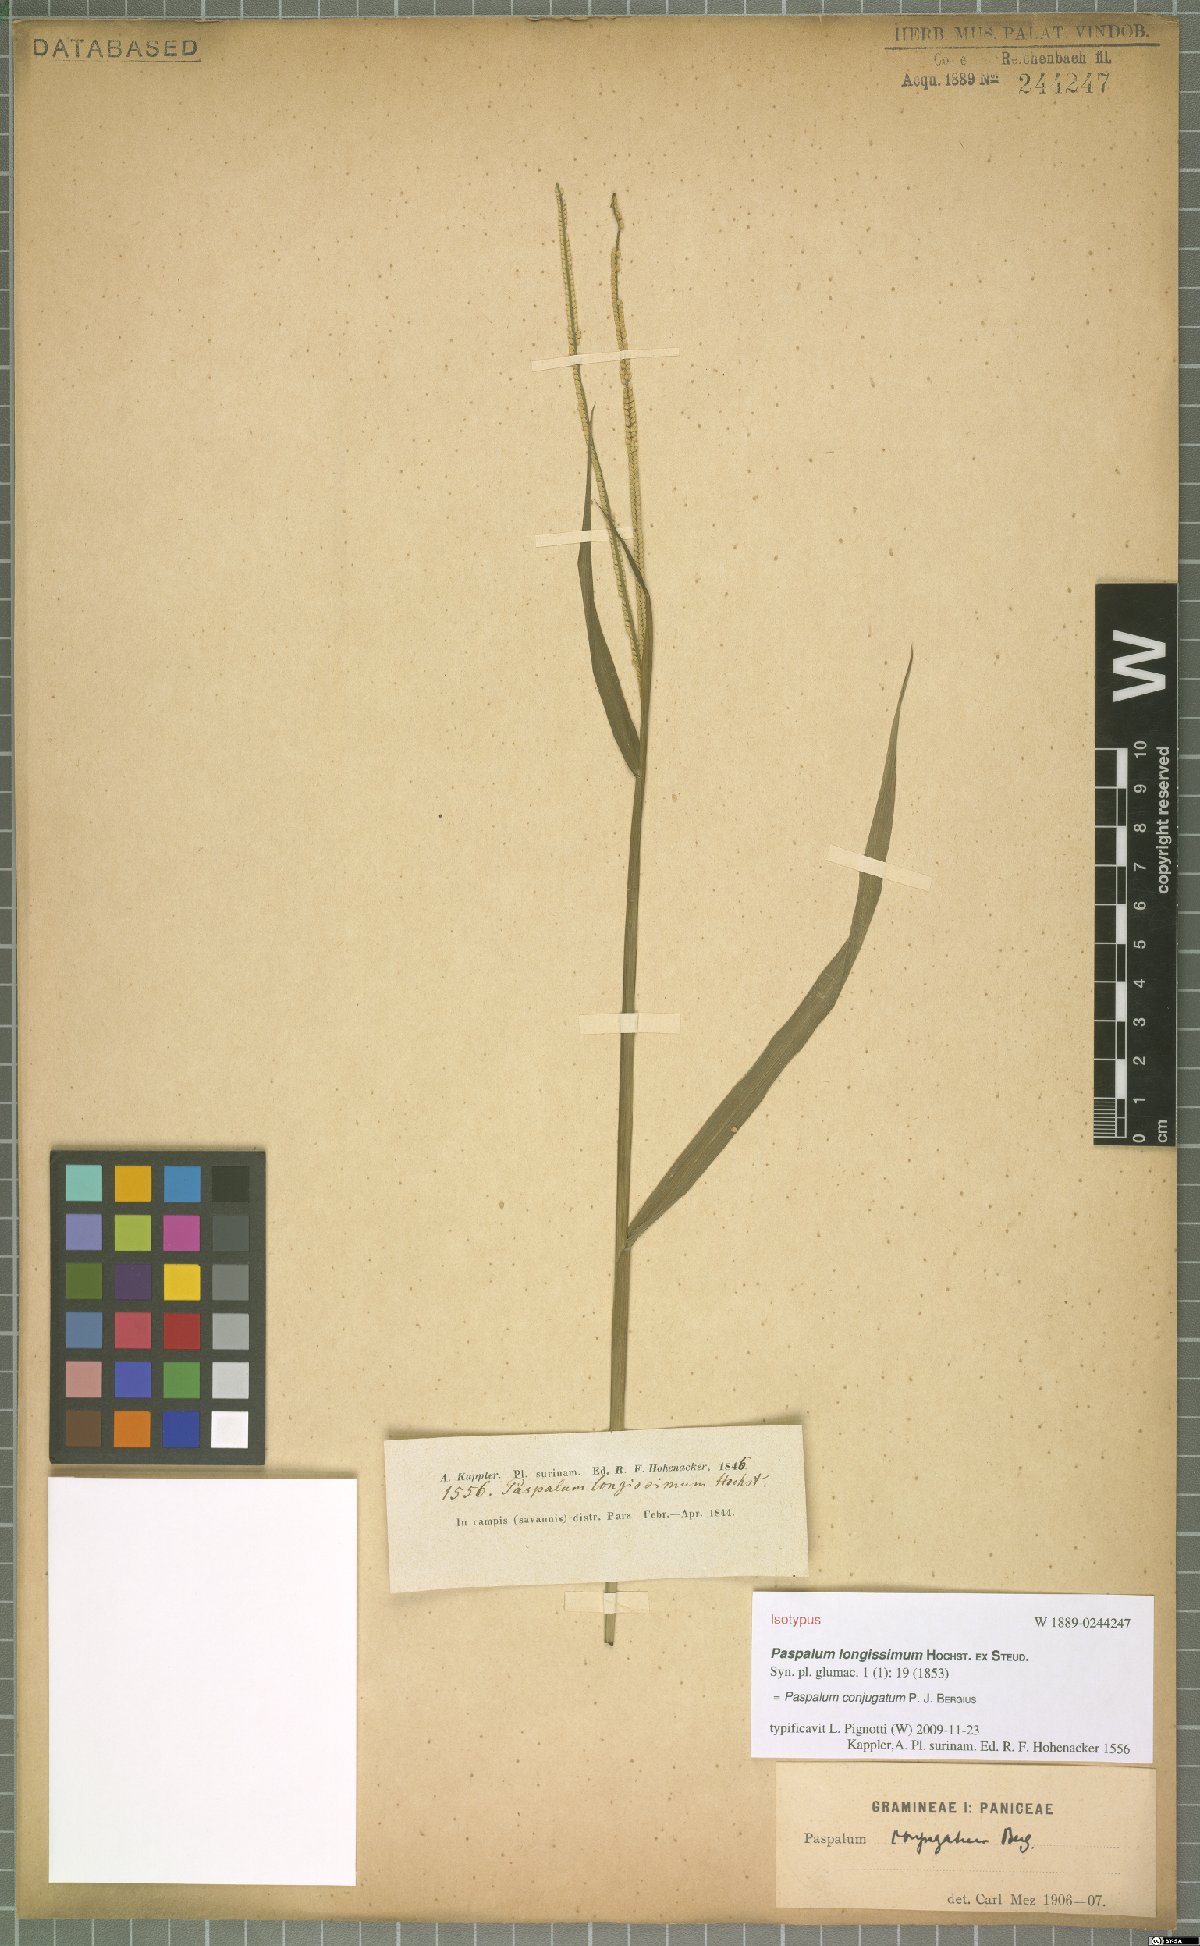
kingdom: Plantae
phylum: Tracheophyta
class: Liliopsida
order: Poales
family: Poaceae
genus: Paspalum
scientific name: Paspalum conjugatum
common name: Hilograss
